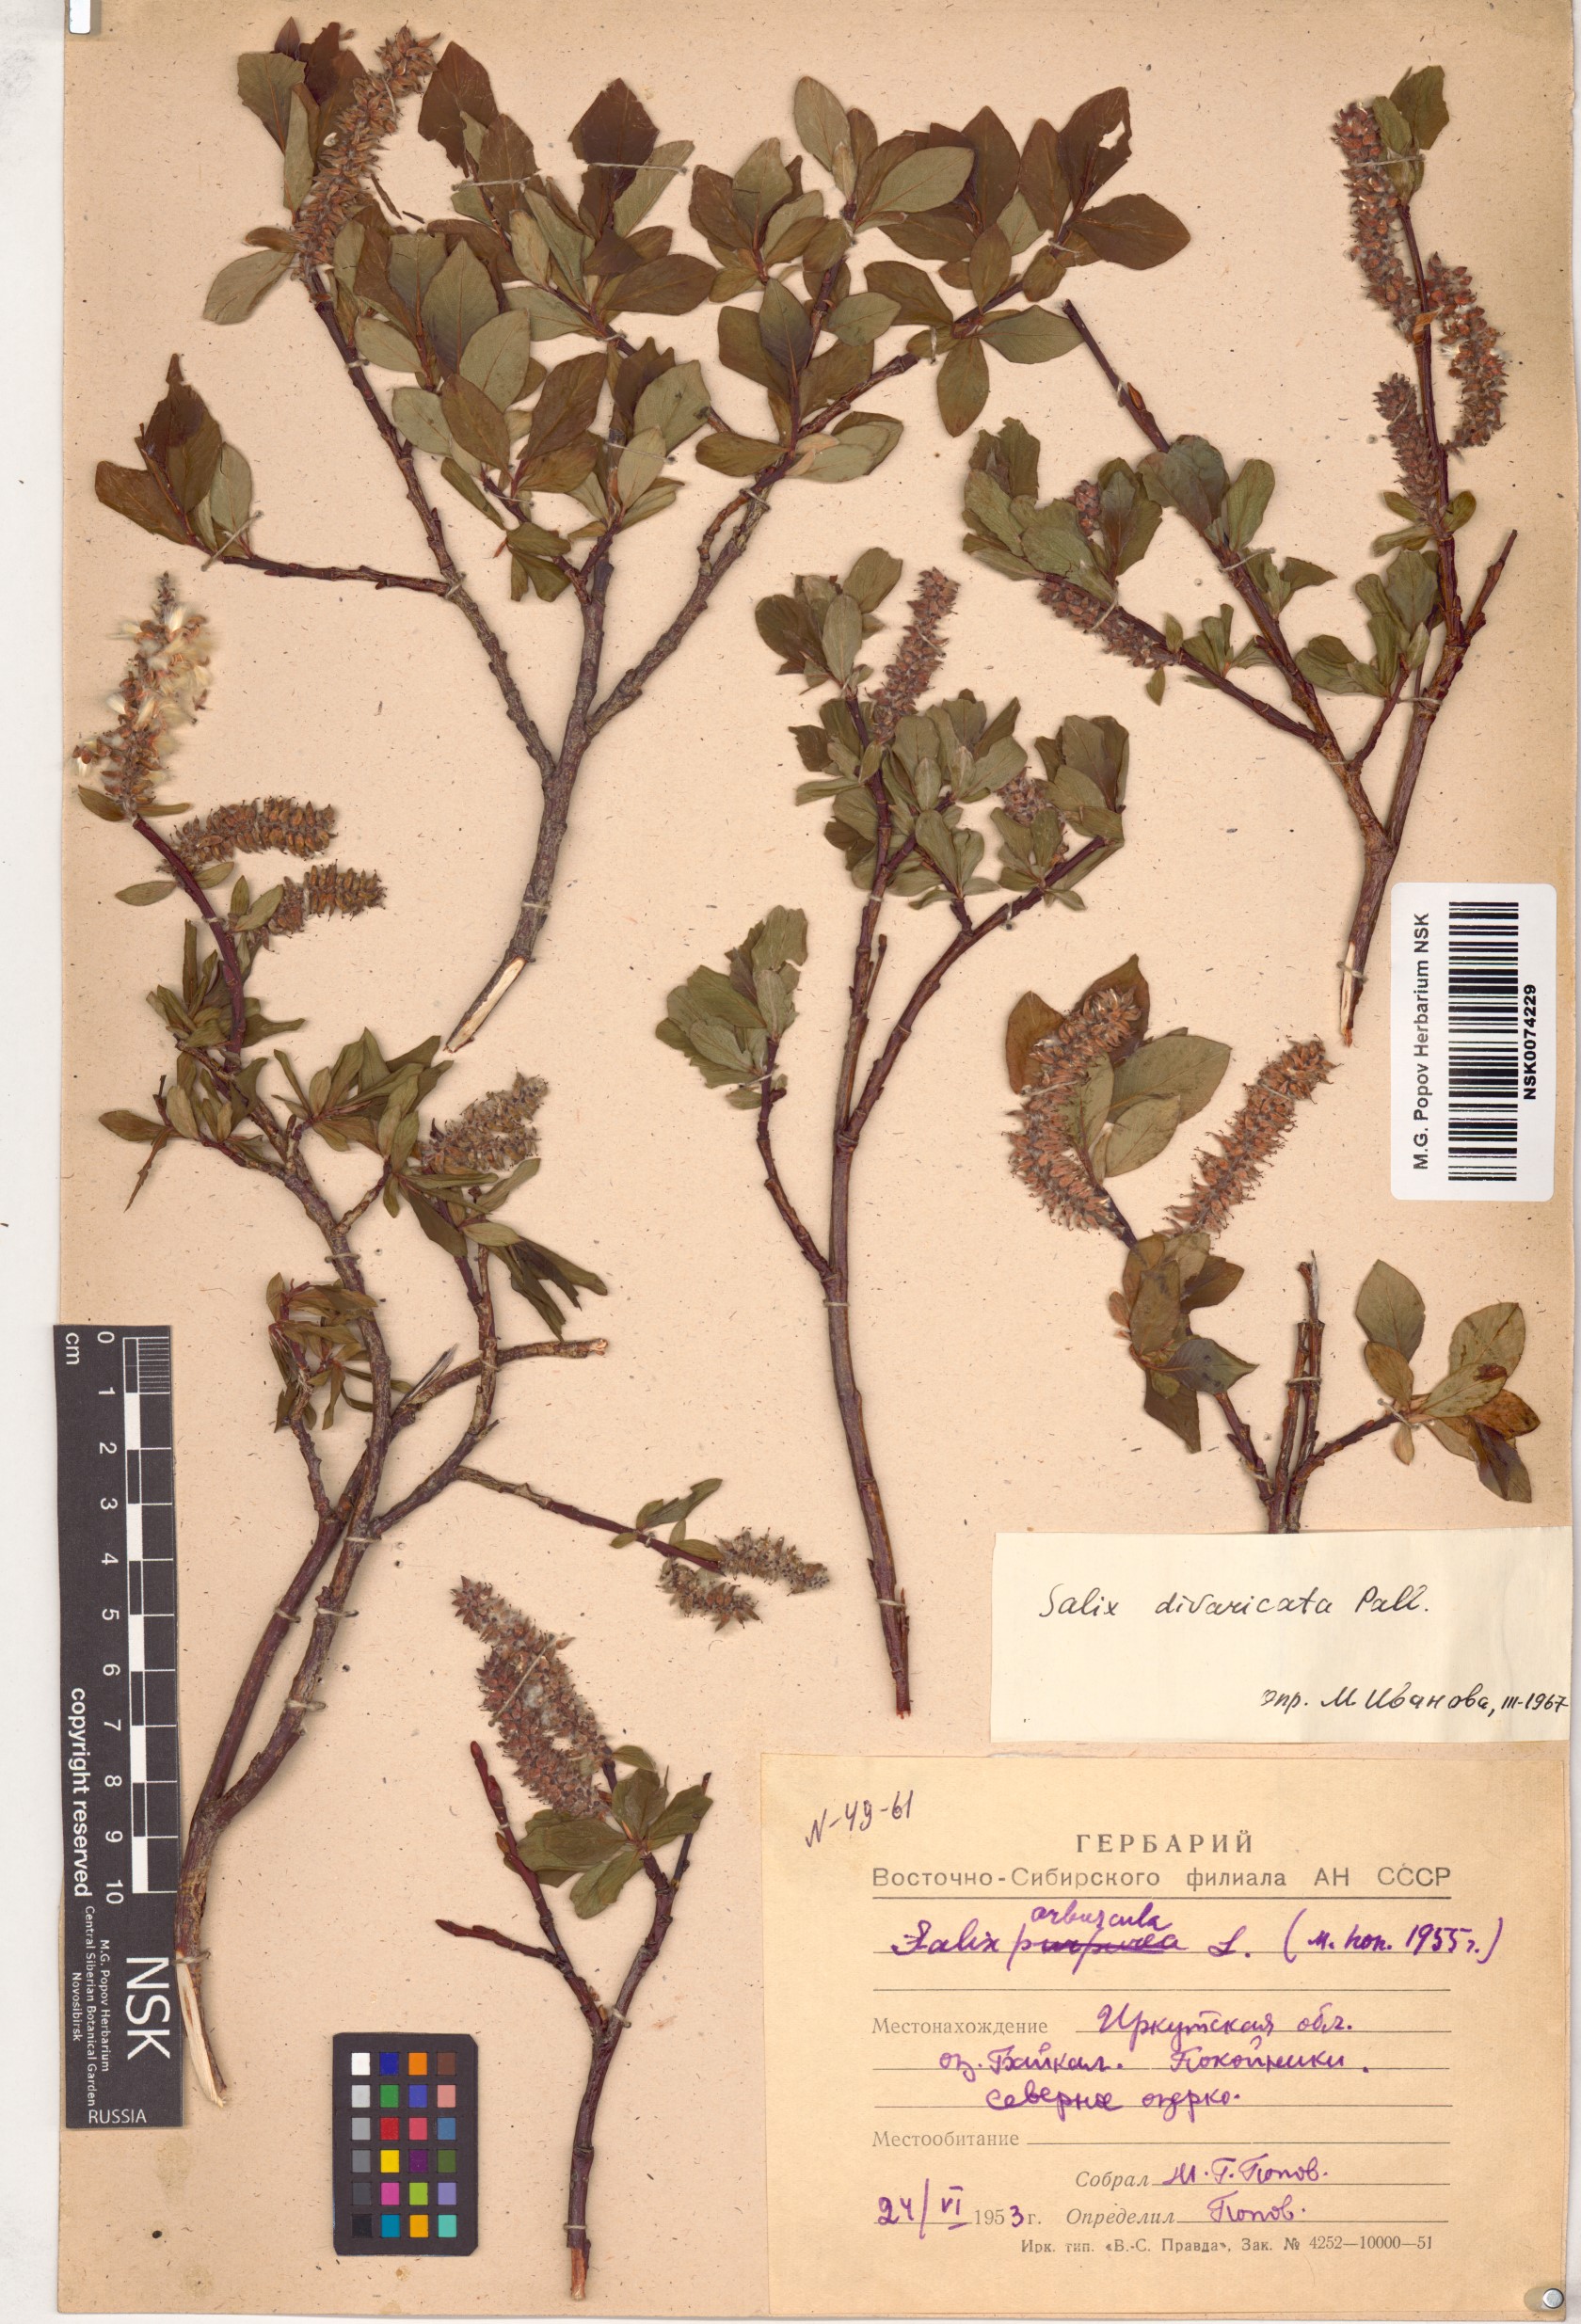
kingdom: Plantae
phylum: Tracheophyta
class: Magnoliopsida
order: Malpighiales
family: Salicaceae
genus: Salix
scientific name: Salix divaricata
